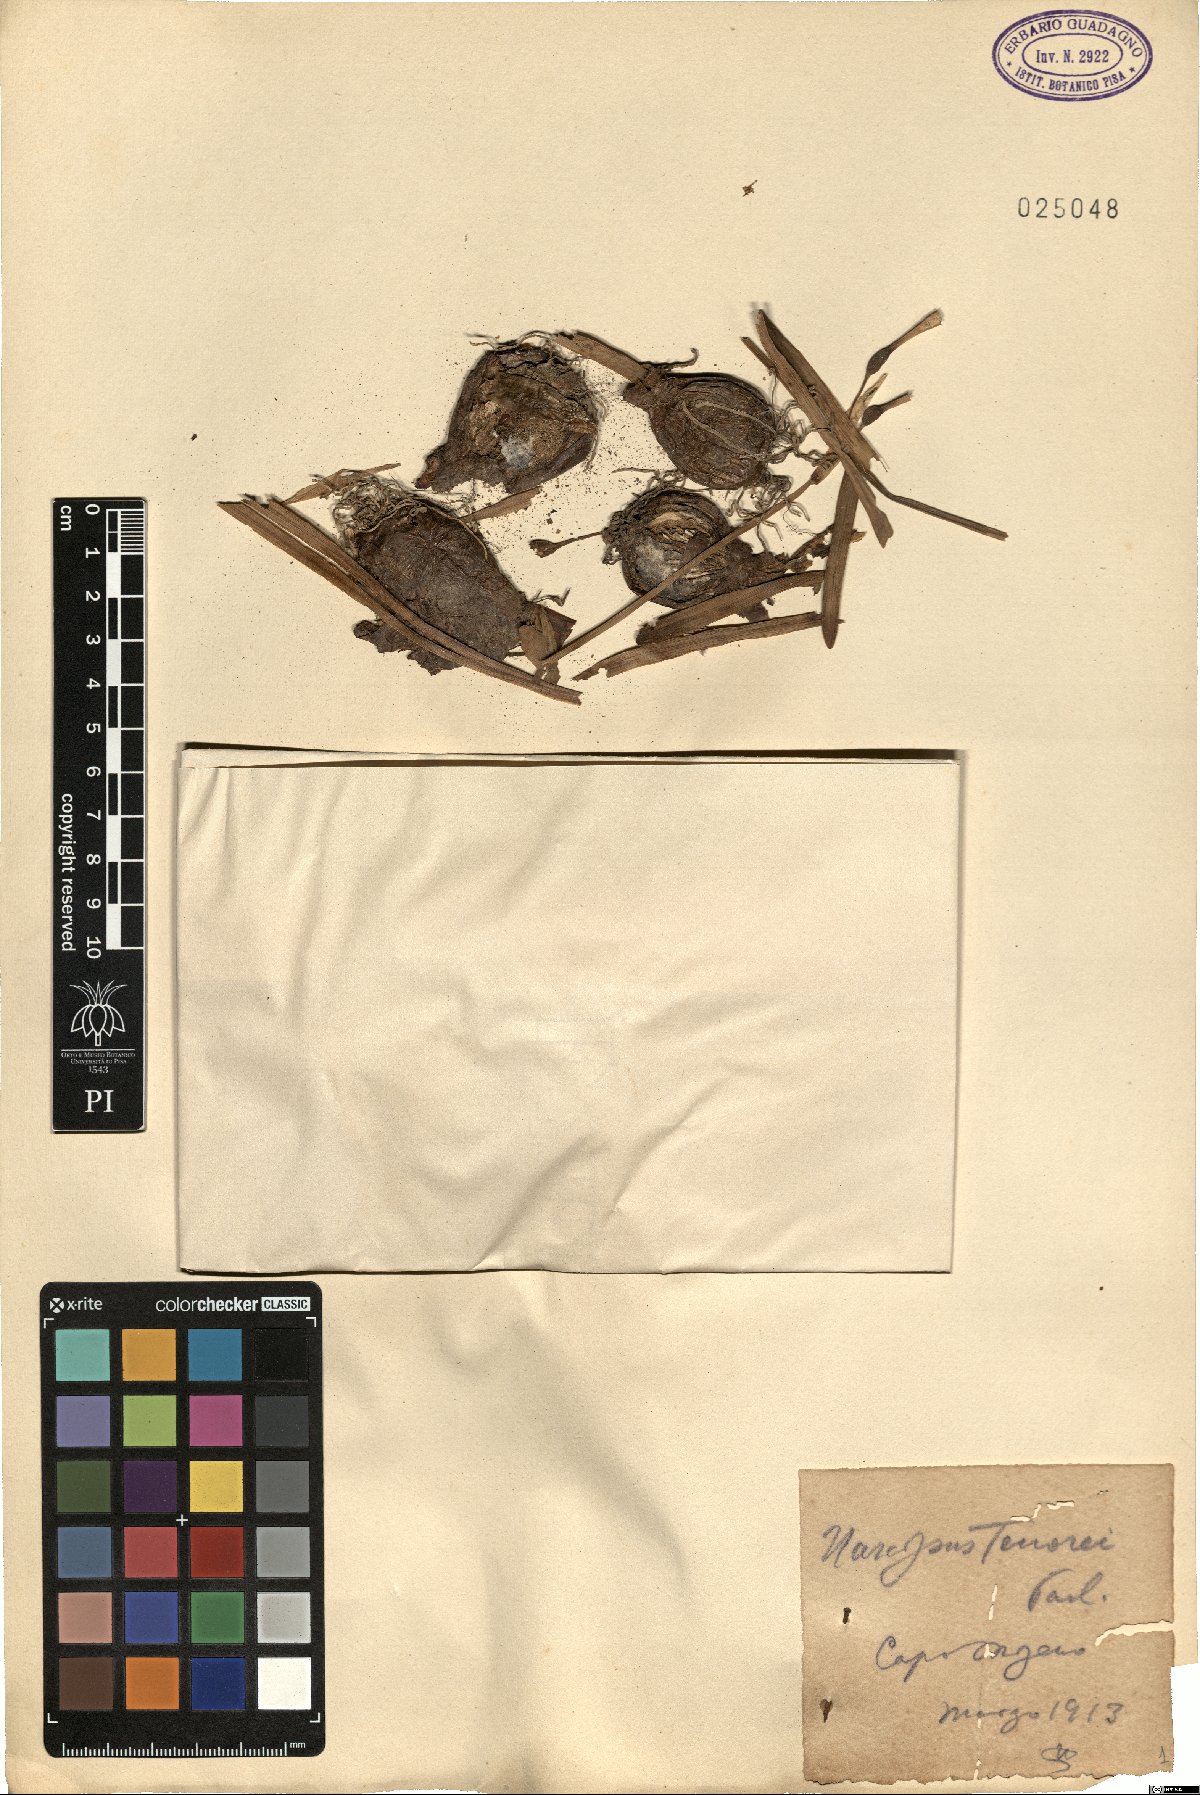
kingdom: Plantae
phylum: Tracheophyta
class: Liliopsida
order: Asparagales
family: Amaryllidaceae
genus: Narcissus
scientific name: Narcissus tazetta
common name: Bunch-flowered daffodil
